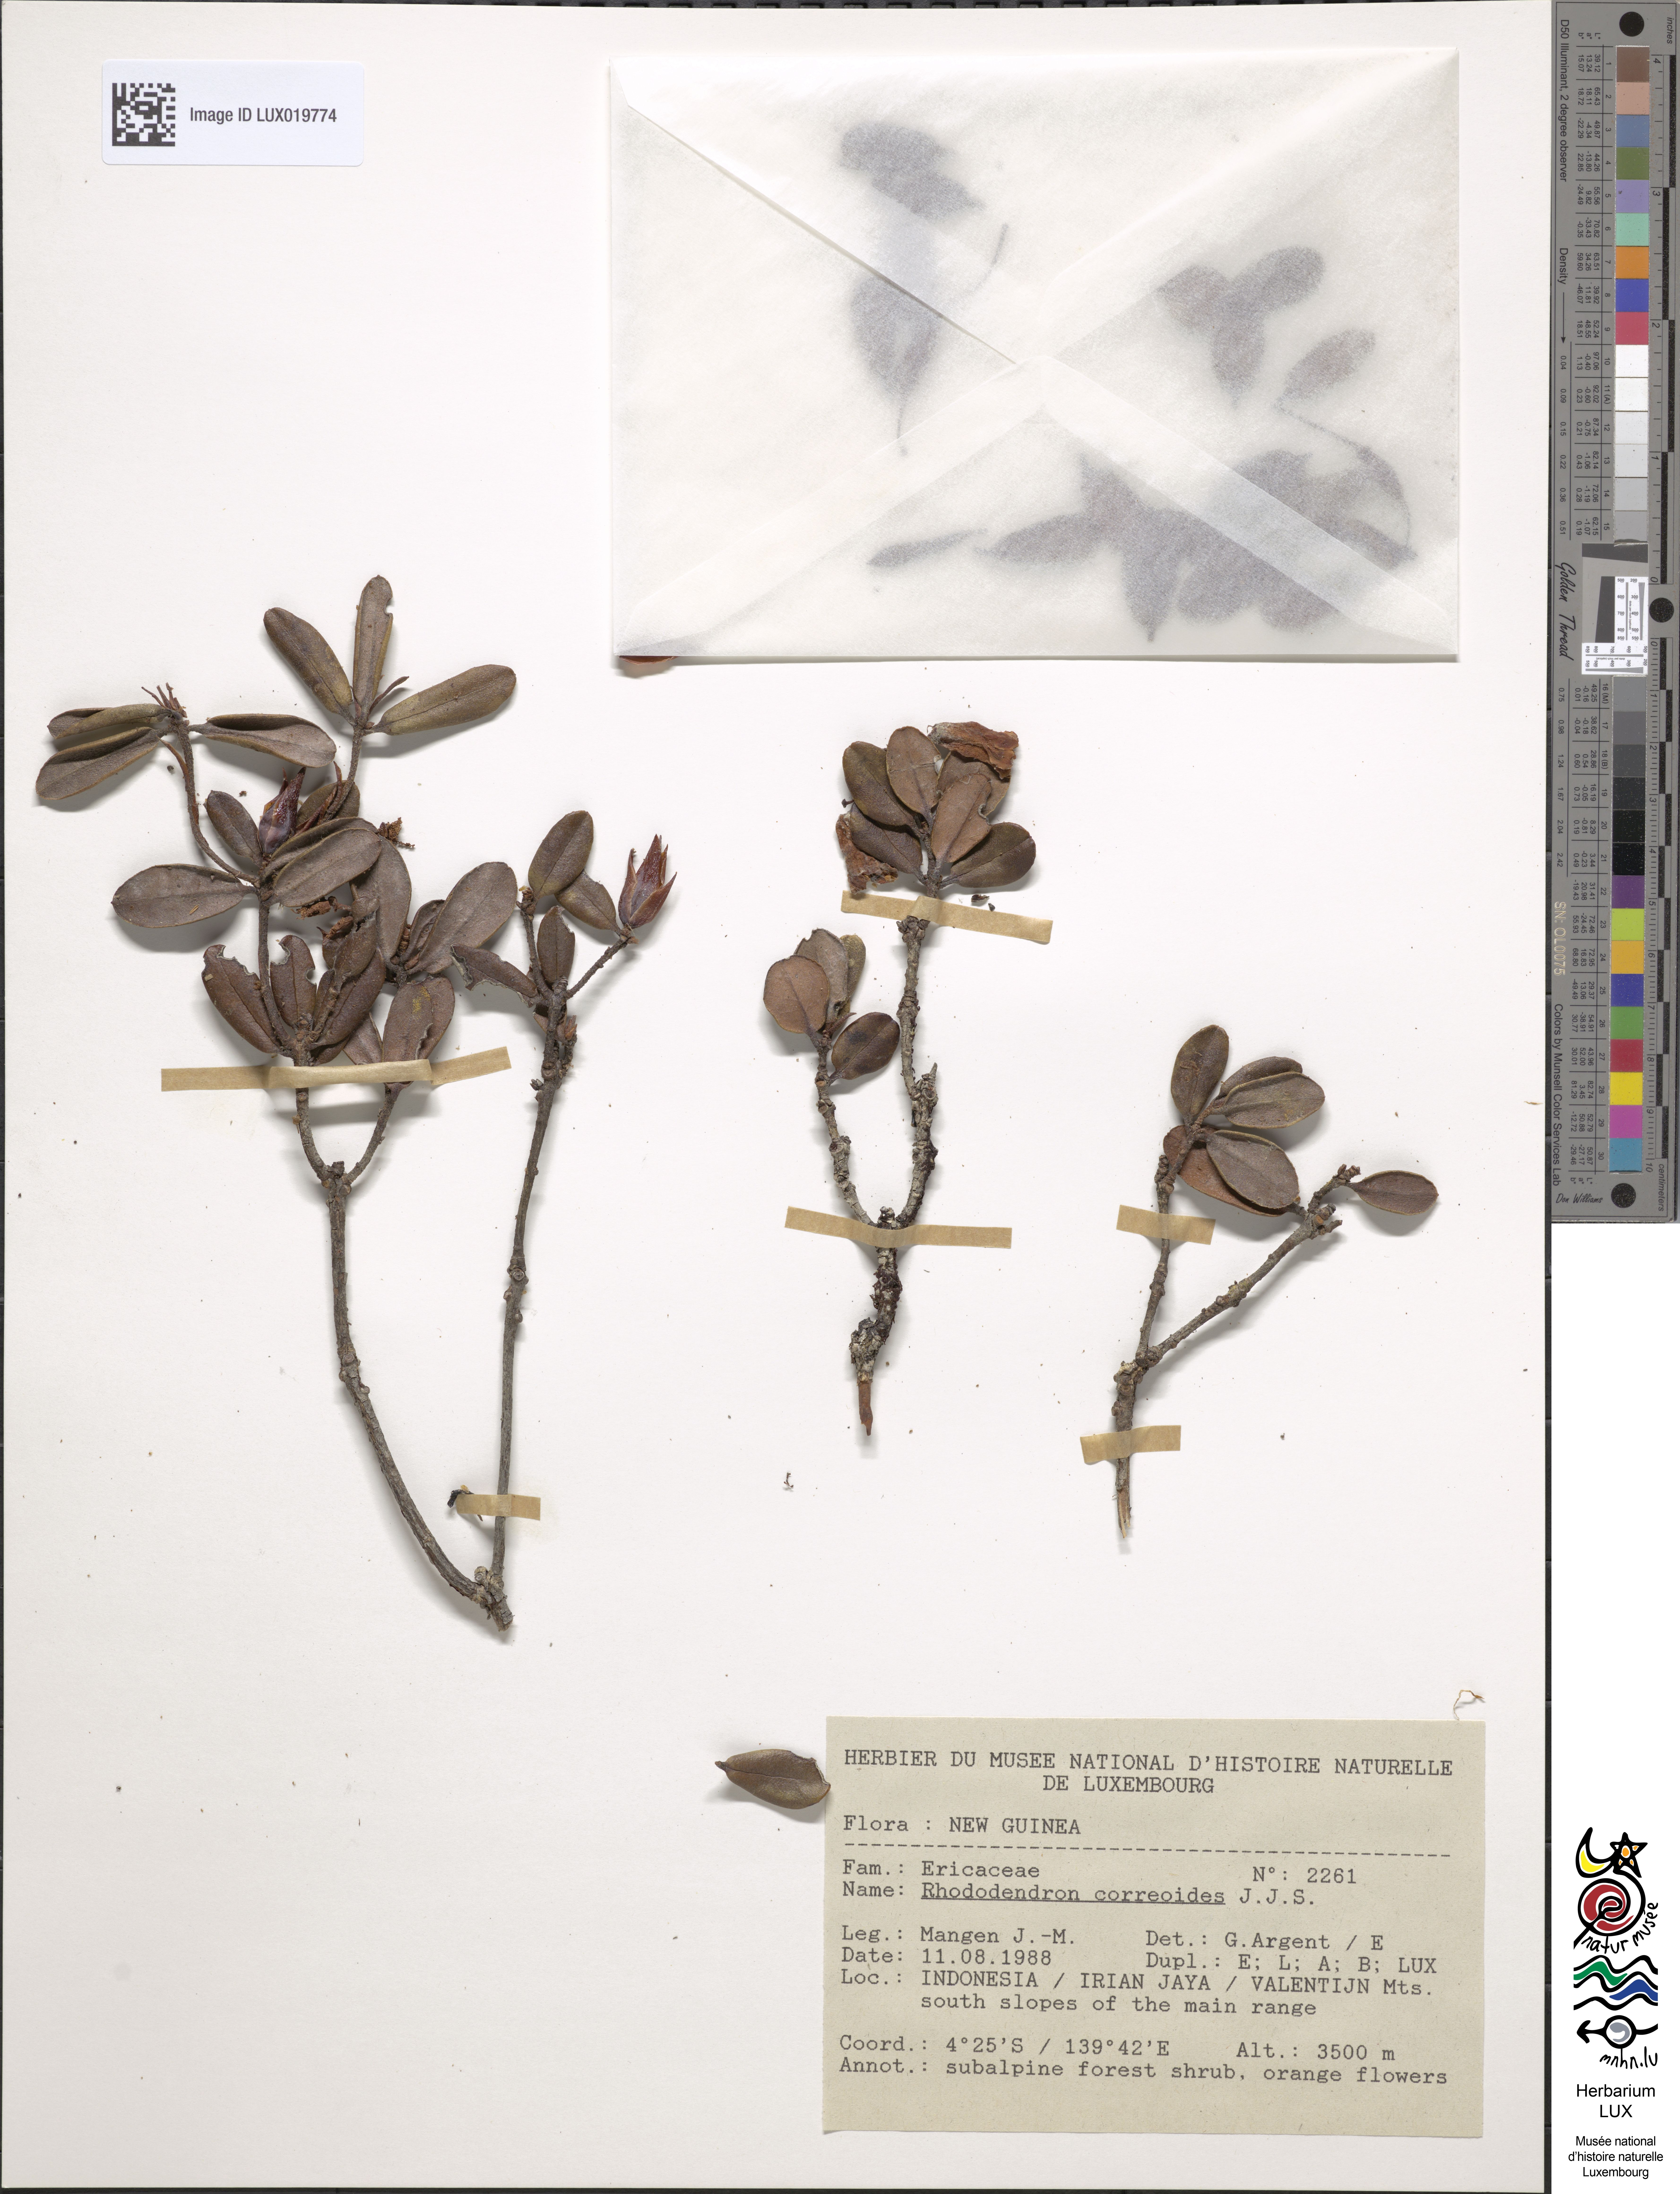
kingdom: Plantae
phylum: Tracheophyta
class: Magnoliopsida
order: Ericales
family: Ericaceae
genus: Rhododendron
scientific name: Rhododendron correoides
